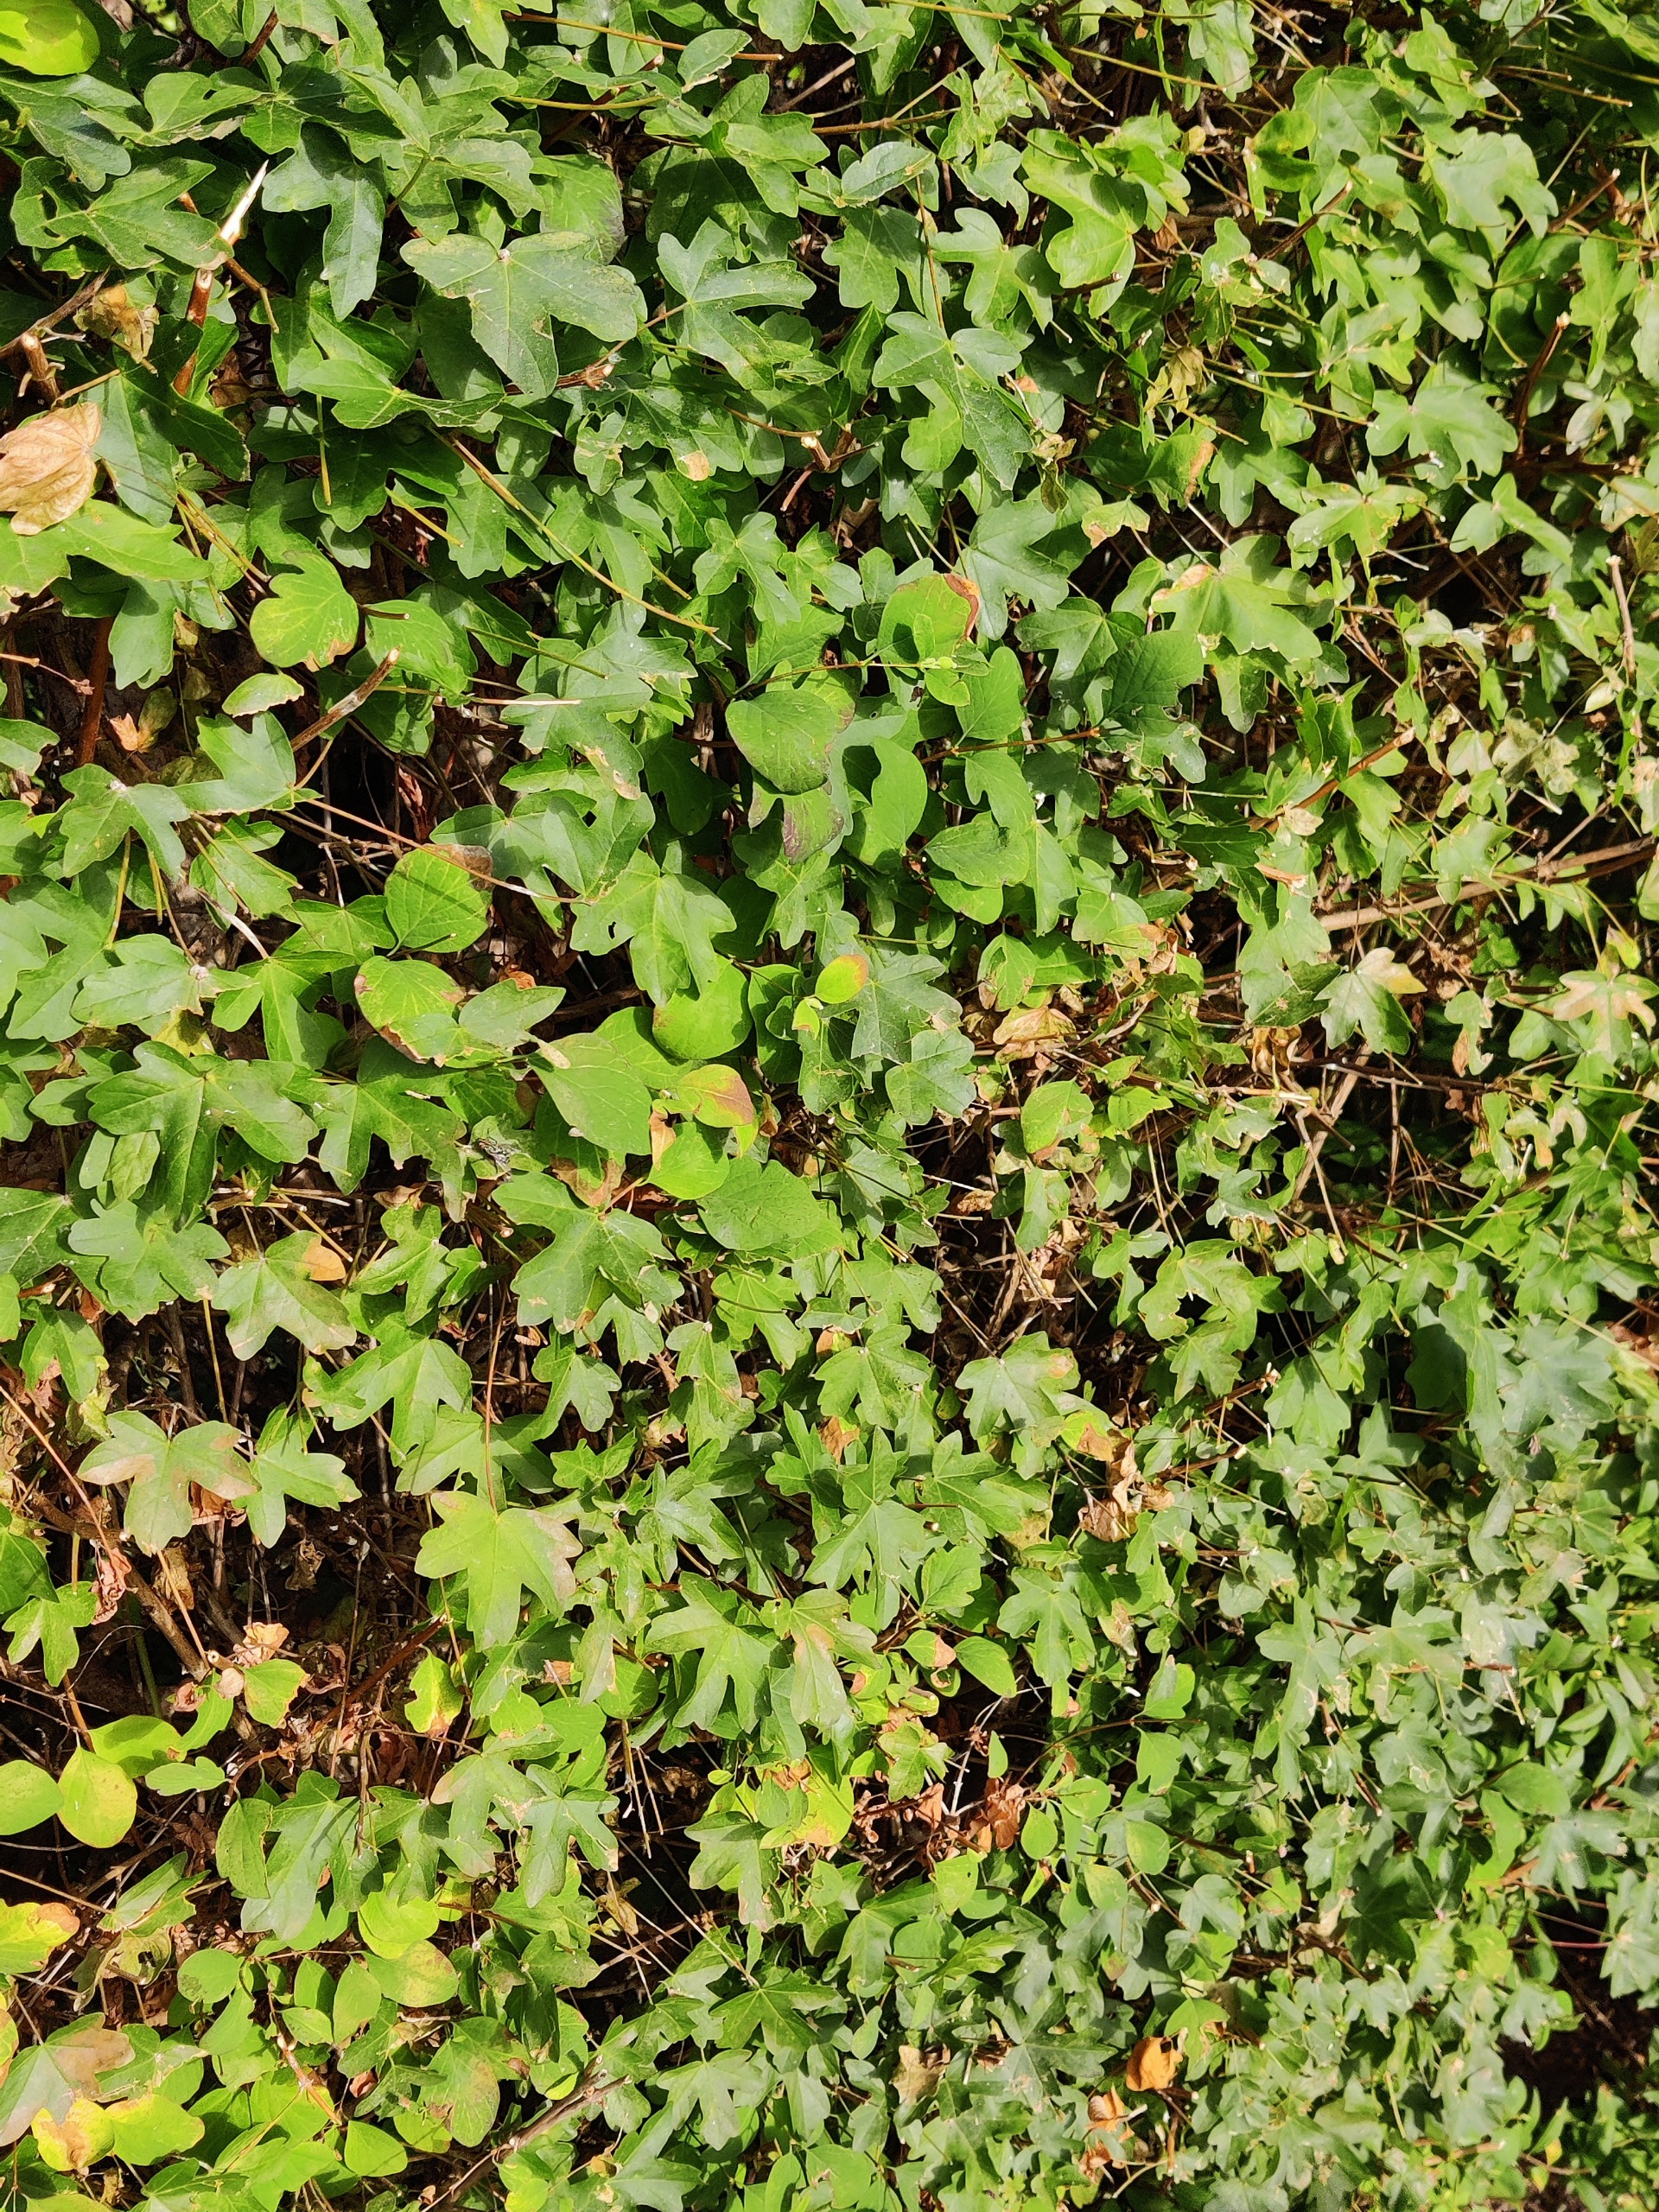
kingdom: Plantae
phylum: Tracheophyta
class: Magnoliopsida
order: Sapindales
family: Sapindaceae
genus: Acer
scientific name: Acer campestre
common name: Navr
